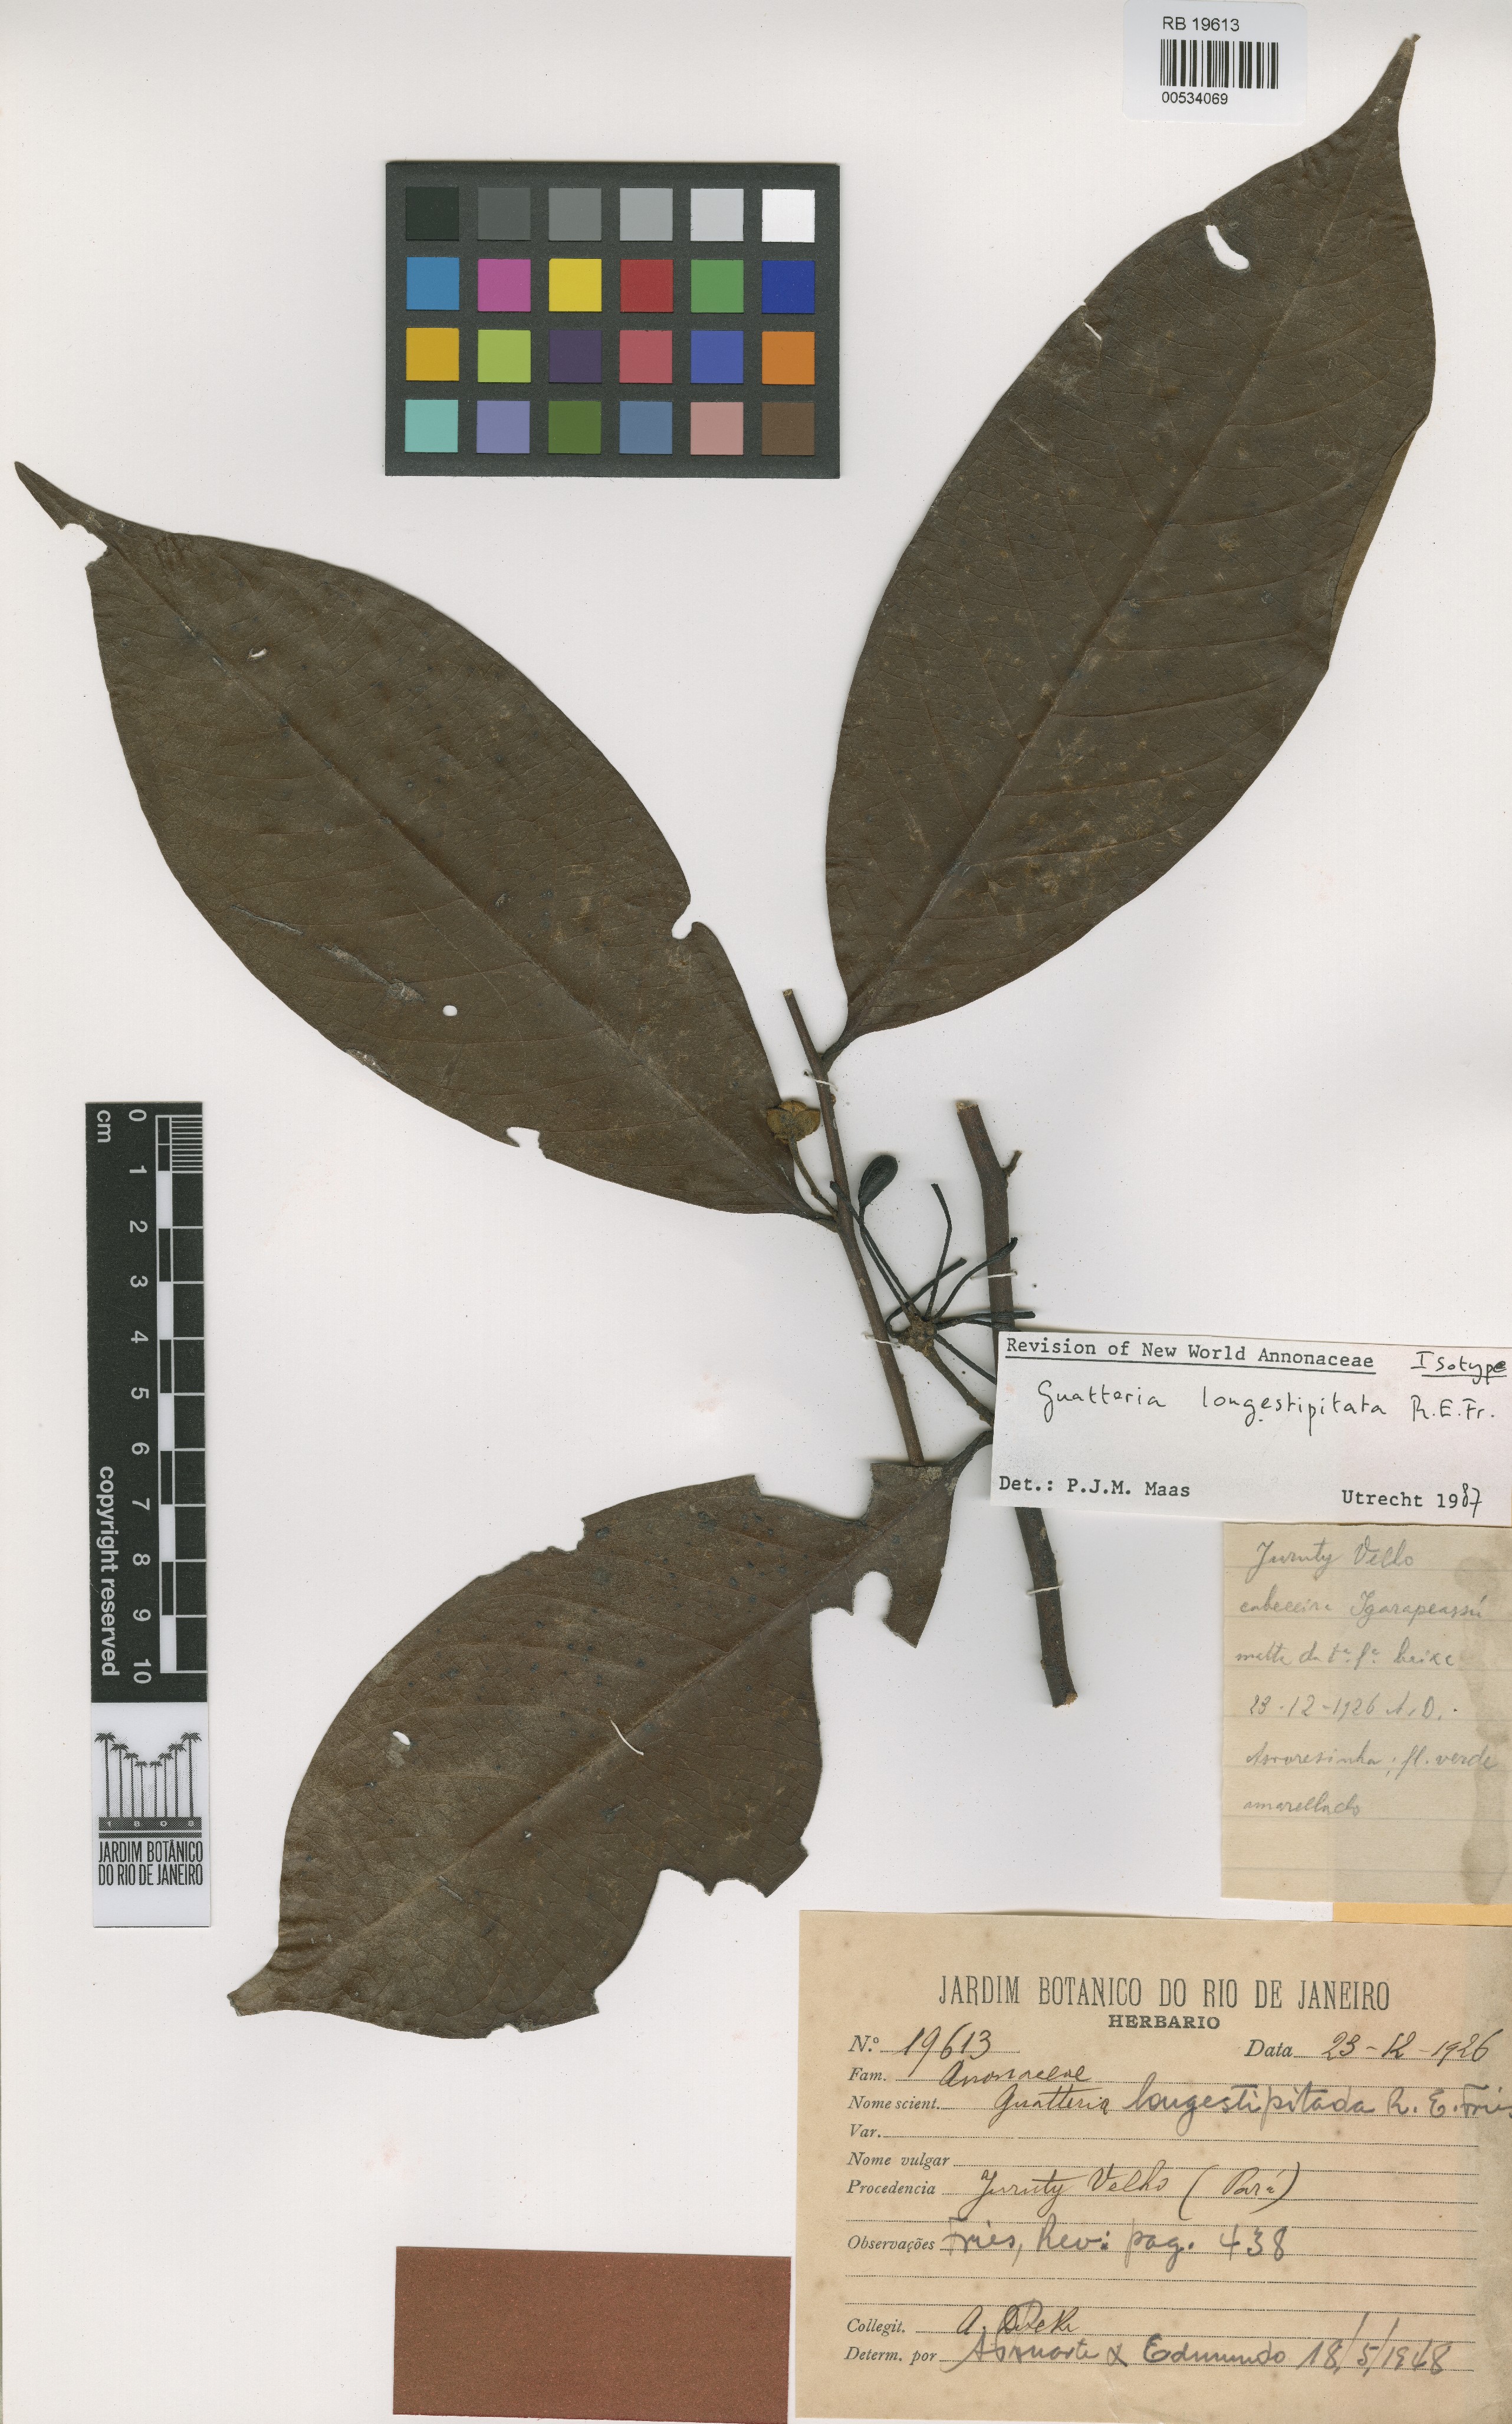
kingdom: Plantae
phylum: Tracheophyta
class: Magnoliopsida
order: Magnoliales
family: Annonaceae
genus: Guatteria
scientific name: Guatteria longestipitata
